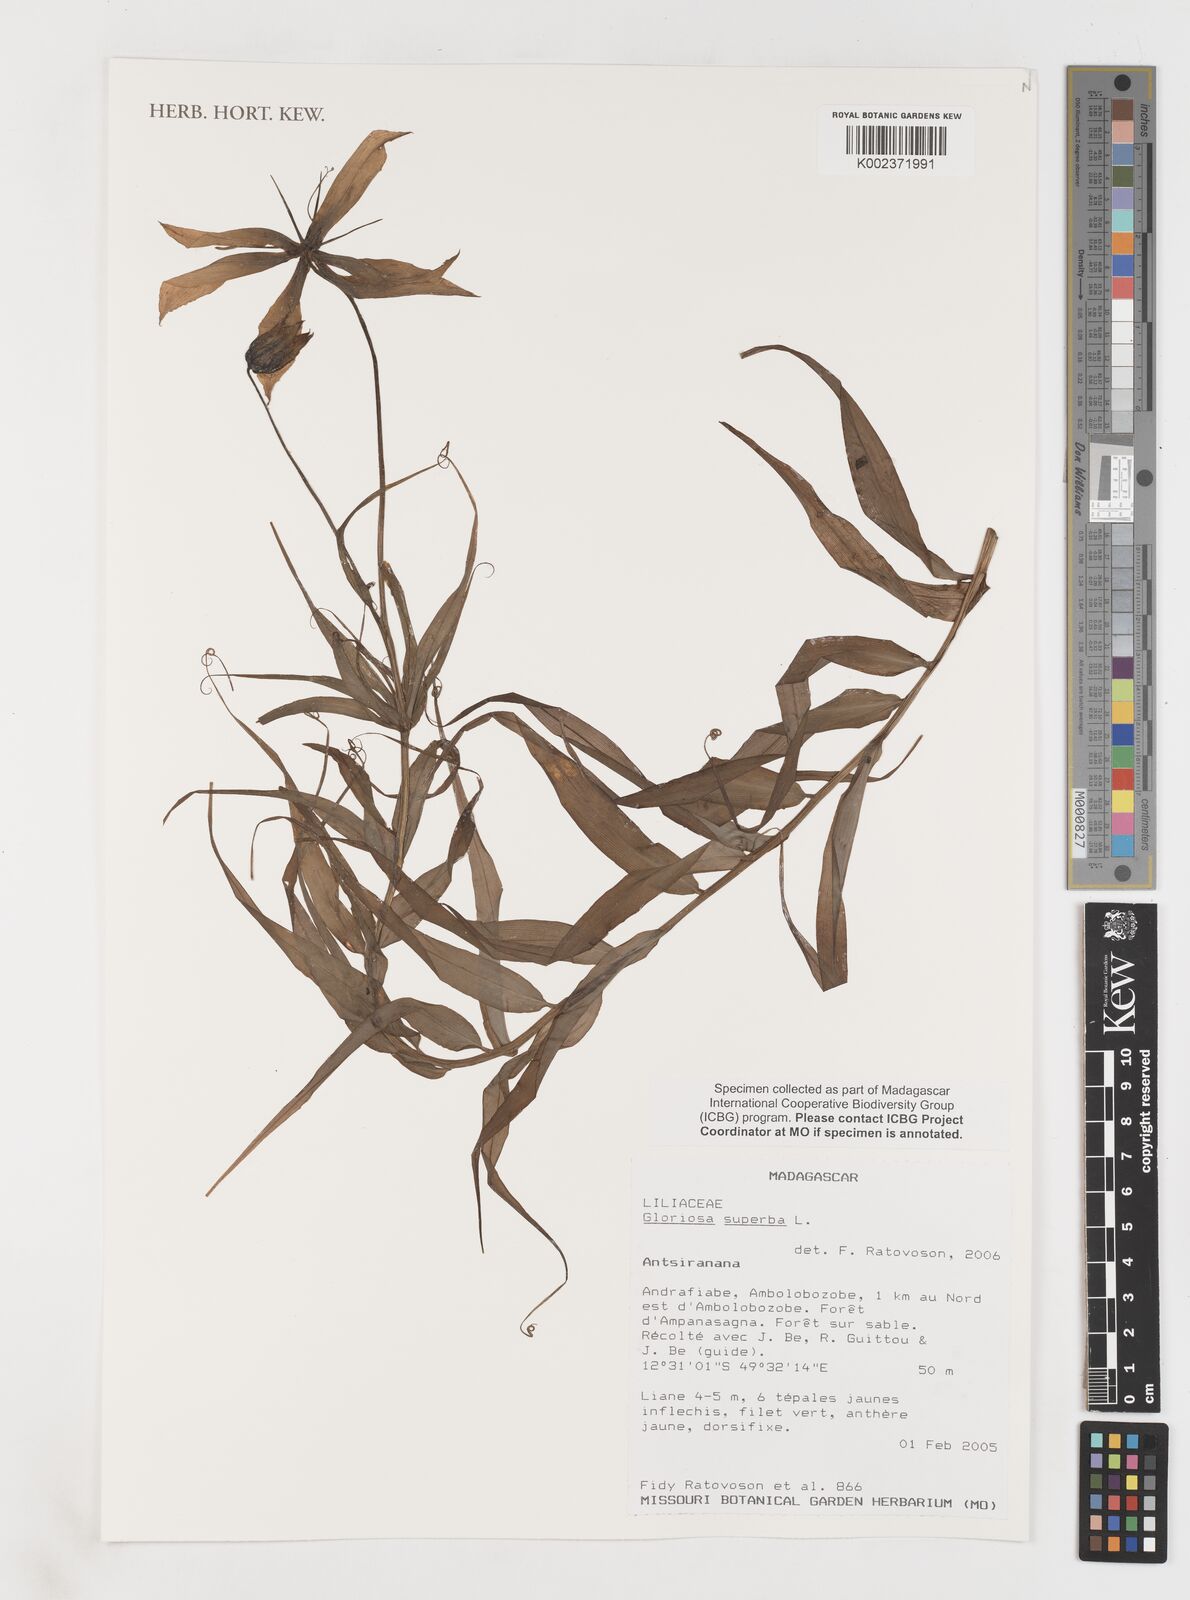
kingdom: Plantae
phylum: Tracheophyta
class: Liliopsida
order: Liliales
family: Colchicaceae
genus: Gloriosa
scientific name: Gloriosa simplex
